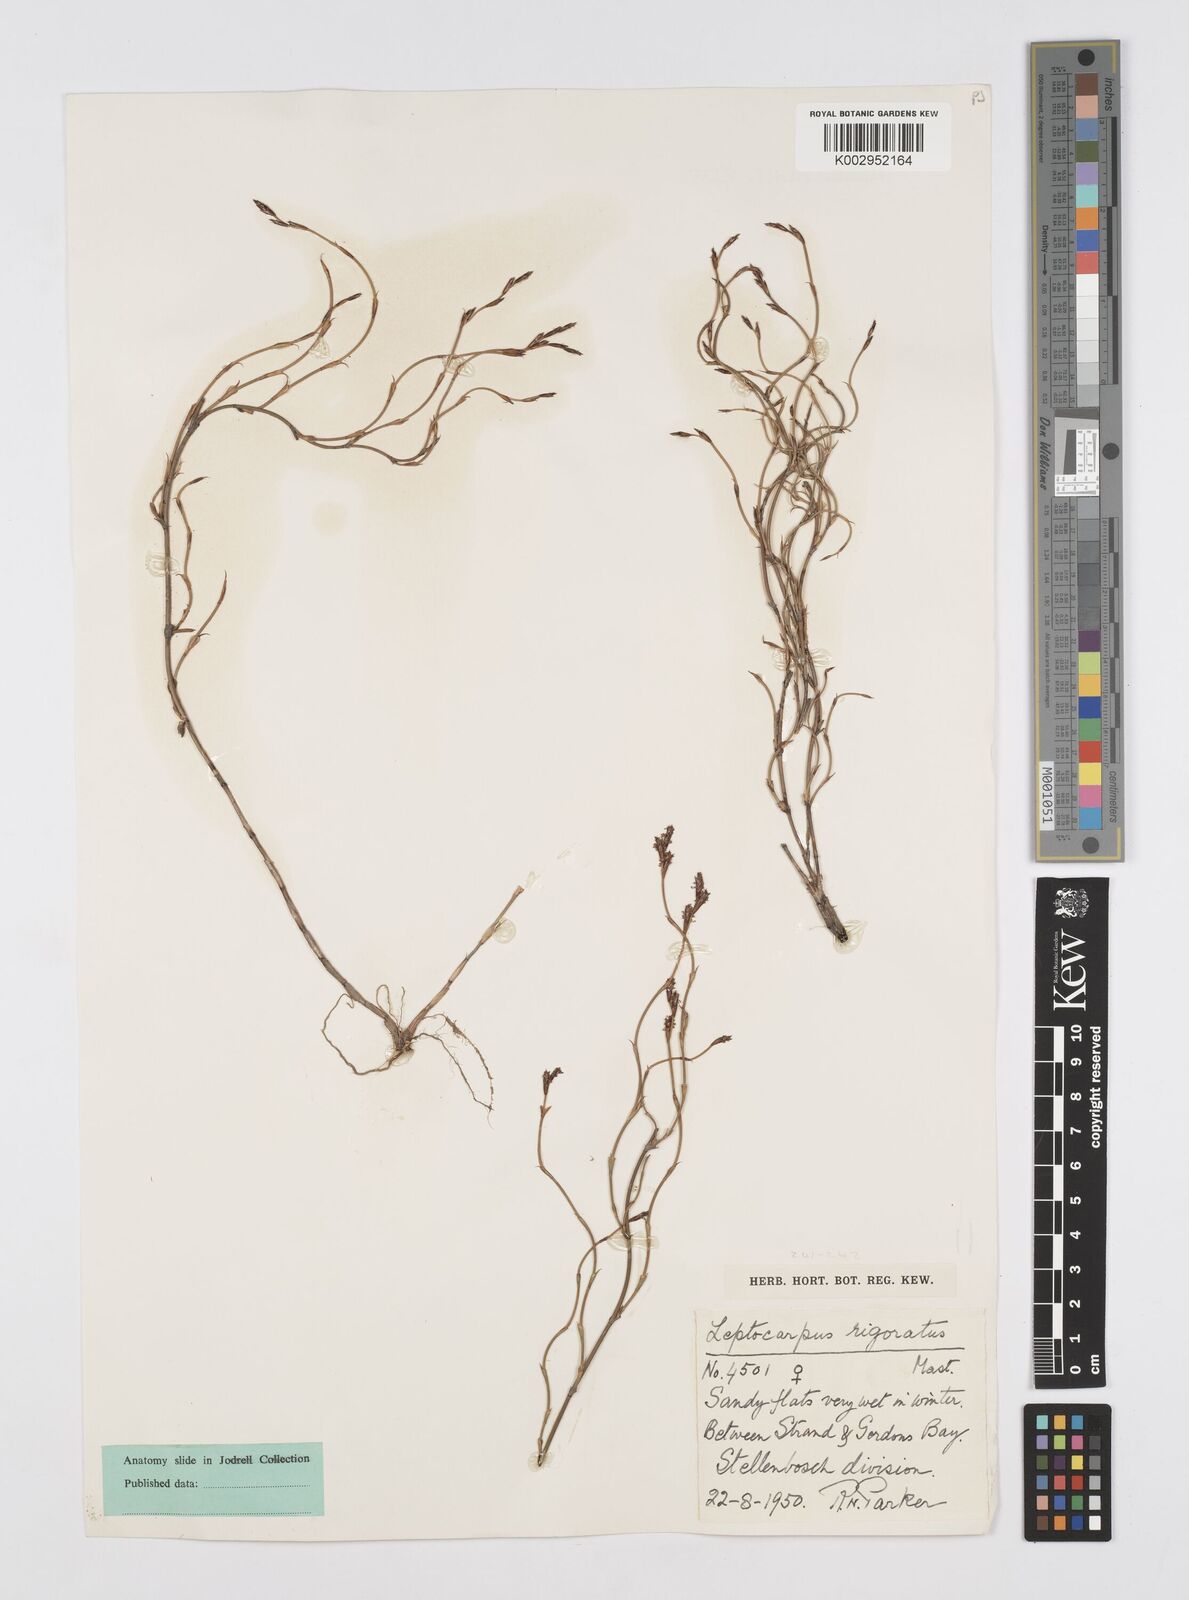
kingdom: Plantae
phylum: Tracheophyta
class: Liliopsida
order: Poales
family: Restionaceae
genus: Restio
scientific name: Restio rigoratus
